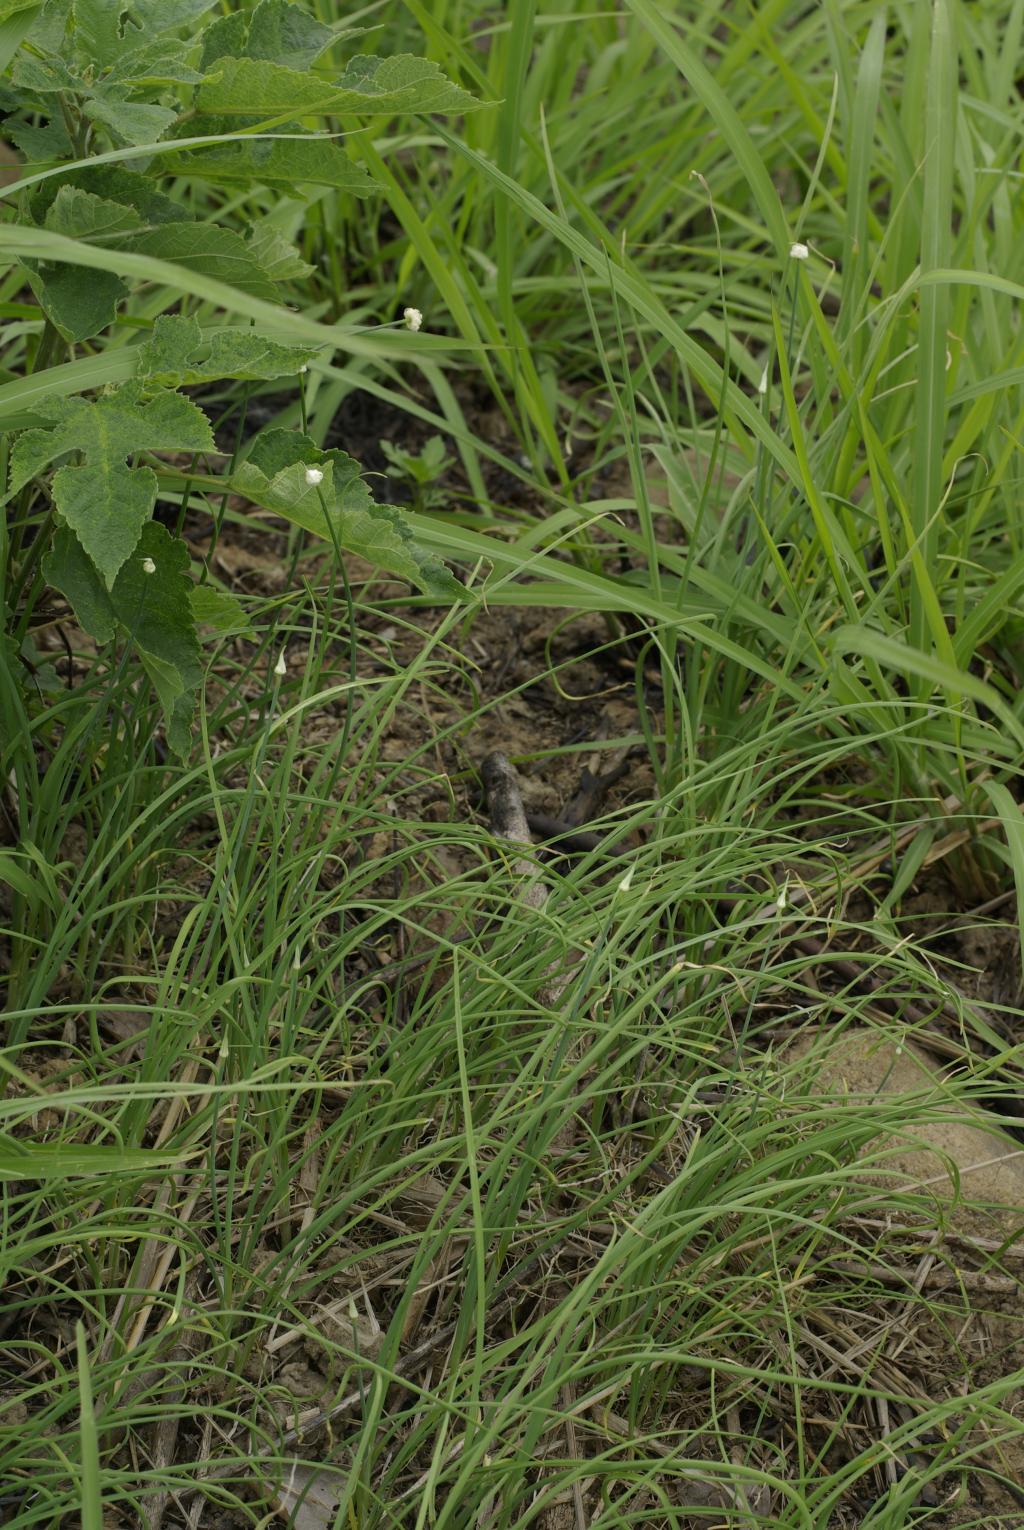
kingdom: Plantae
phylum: Tracheophyta
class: Liliopsida
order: Asparagales
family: Amaryllidaceae
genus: Allium
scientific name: Allium macrostemon
